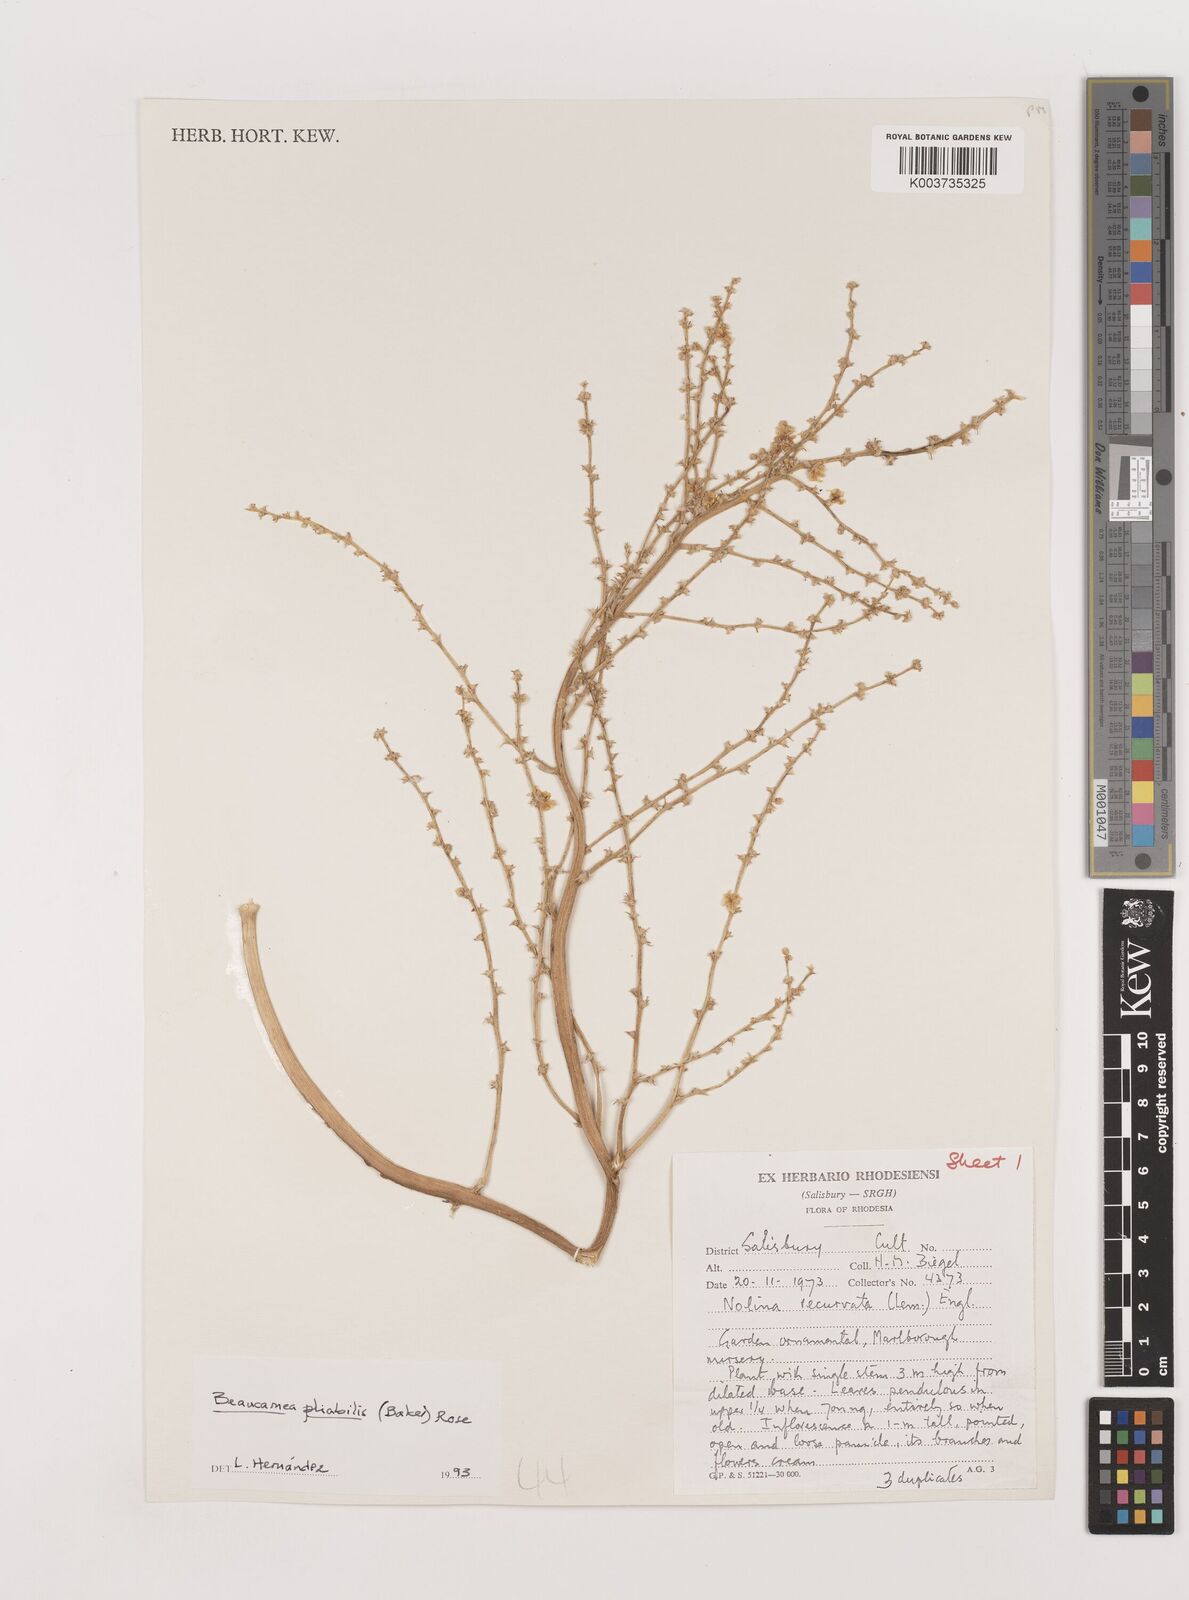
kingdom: Plantae
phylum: Tracheophyta
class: Liliopsida
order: Asparagales
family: Asparagaceae
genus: Beaucarnea
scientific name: Beaucarnea pliabilis
